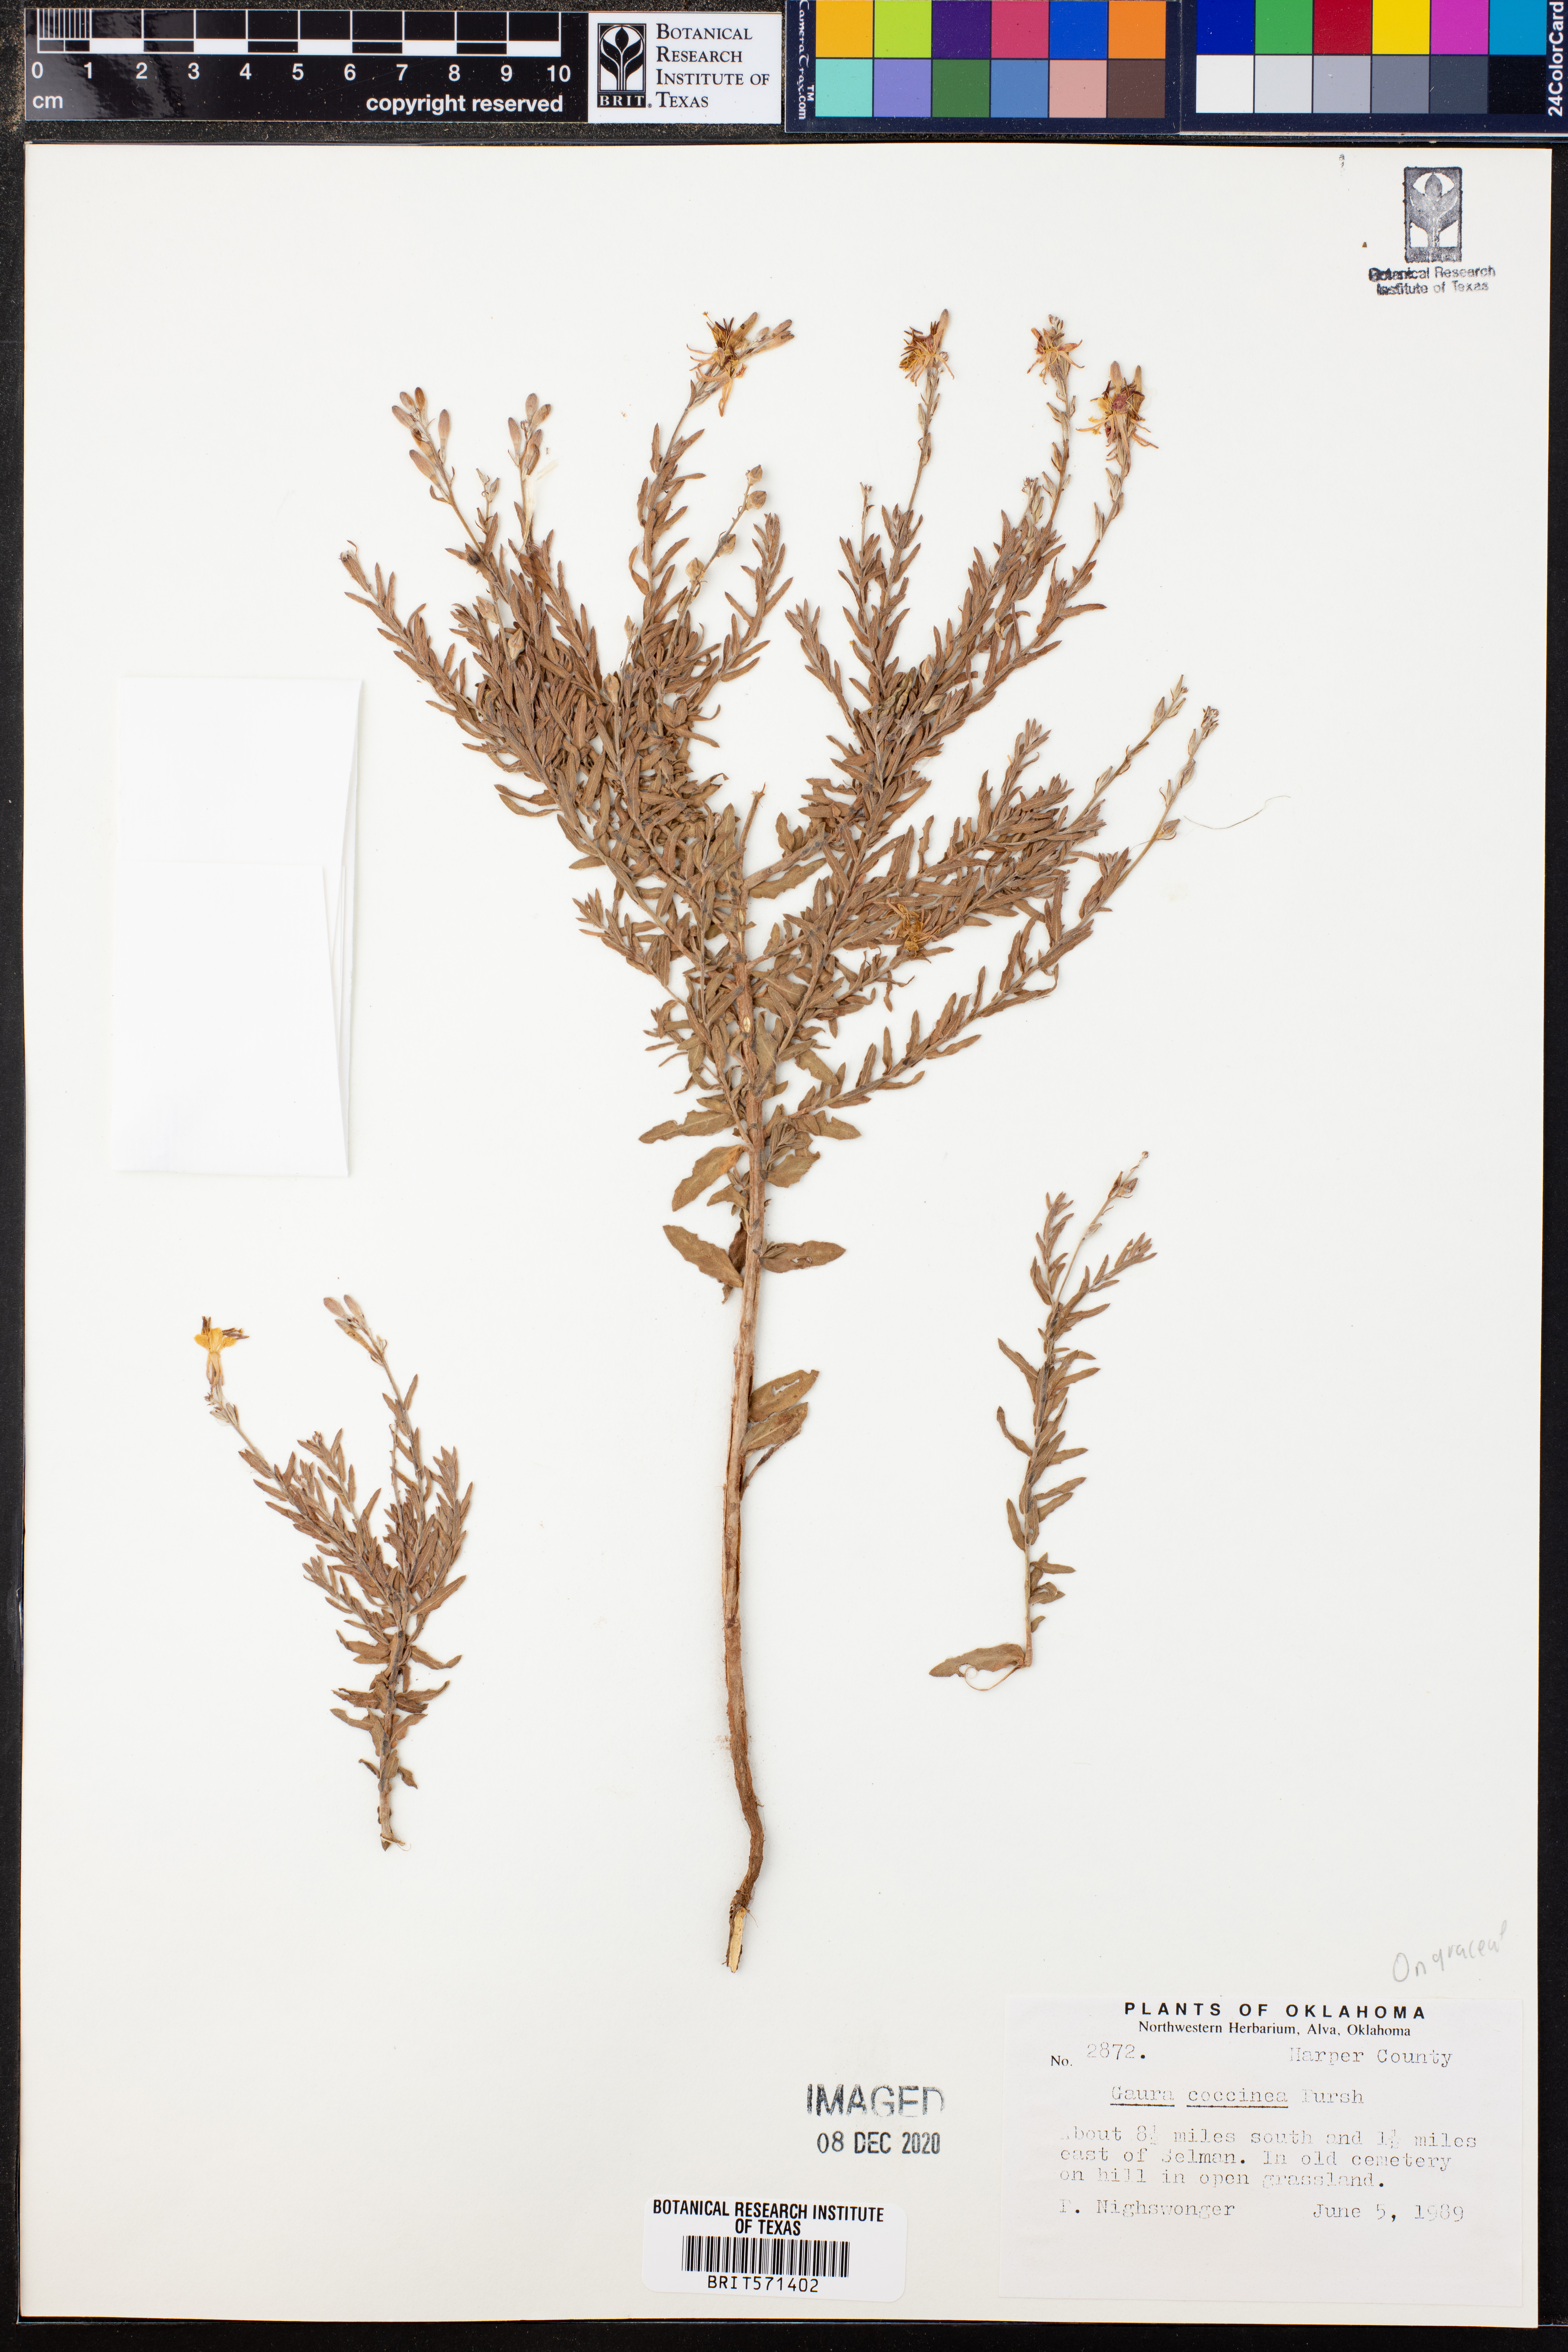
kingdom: Plantae
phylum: Tracheophyta
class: Magnoliopsida
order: Myrtales
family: Onagraceae
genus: Oenothera
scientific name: Oenothera suffrutescens
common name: Scarlet beeblossom
